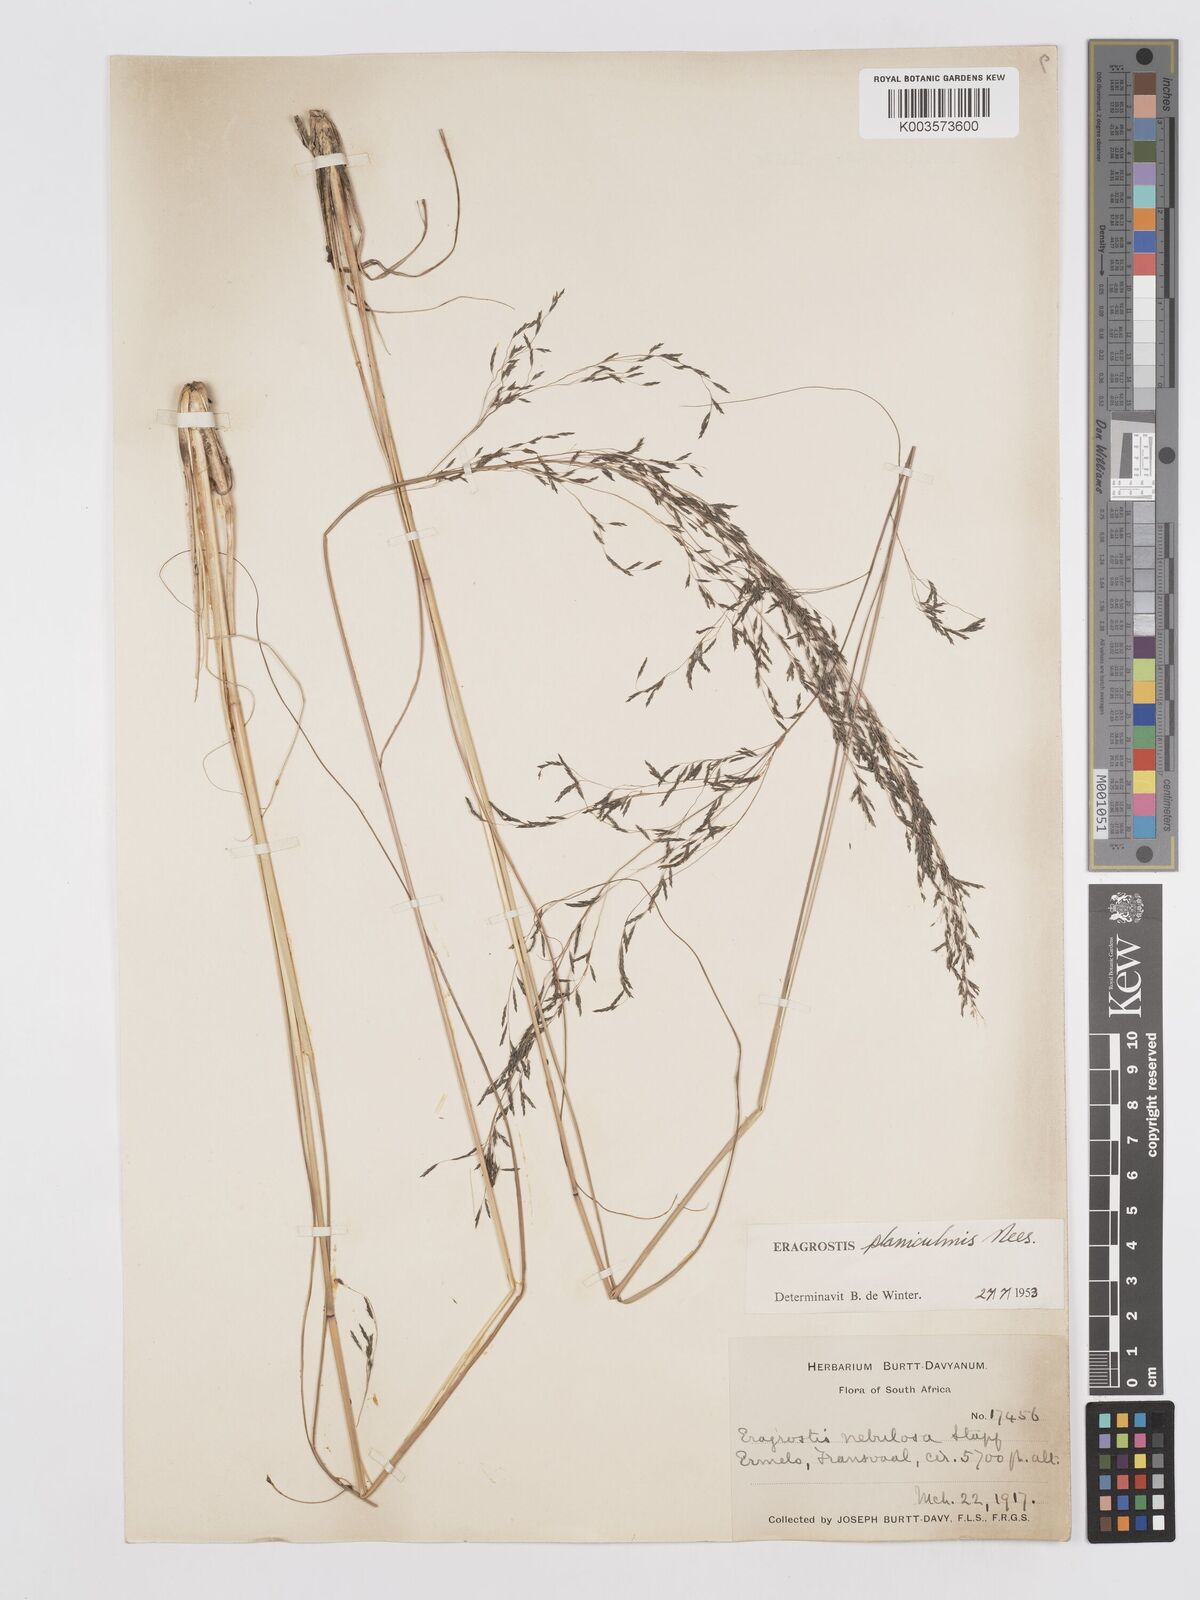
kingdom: Plantae
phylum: Tracheophyta
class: Liliopsida
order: Poales
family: Poaceae
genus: Eragrostis
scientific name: Eragrostis planiculmis
